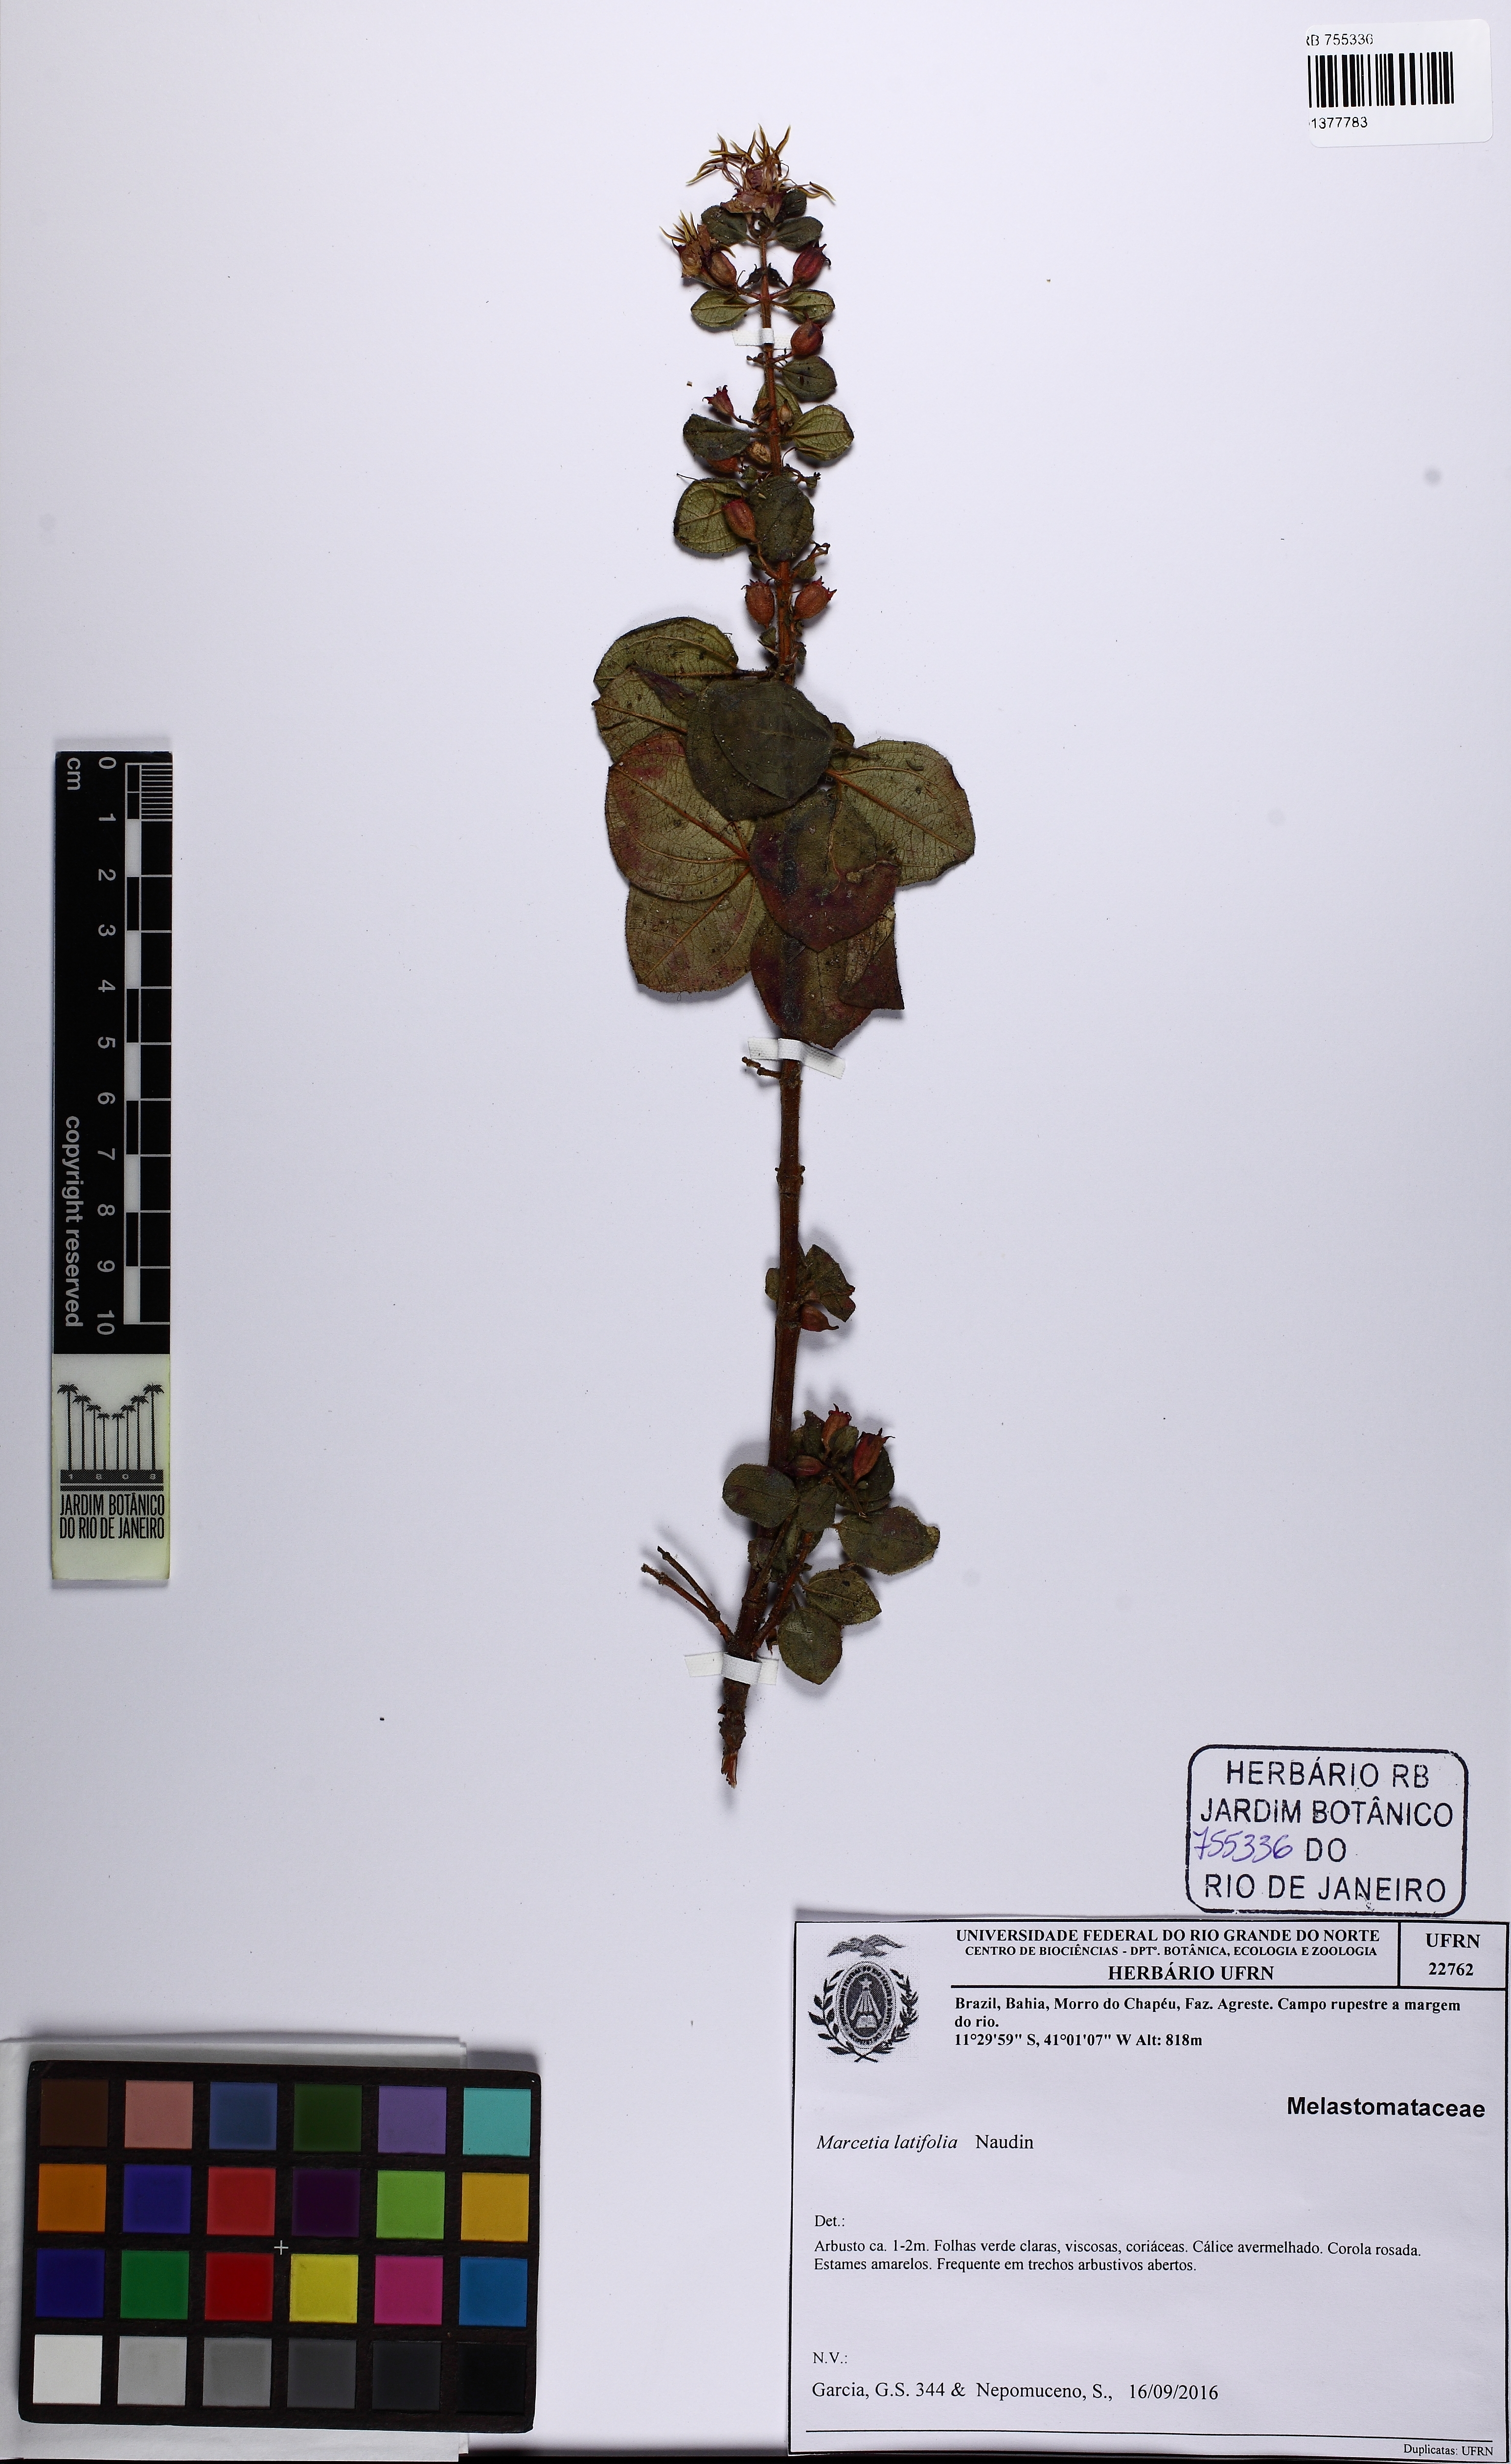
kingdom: Plantae
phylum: Tracheophyta
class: Magnoliopsida
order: Myrtales
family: Melastomataceae
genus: Marcetia
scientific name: Marcetia latifolia
